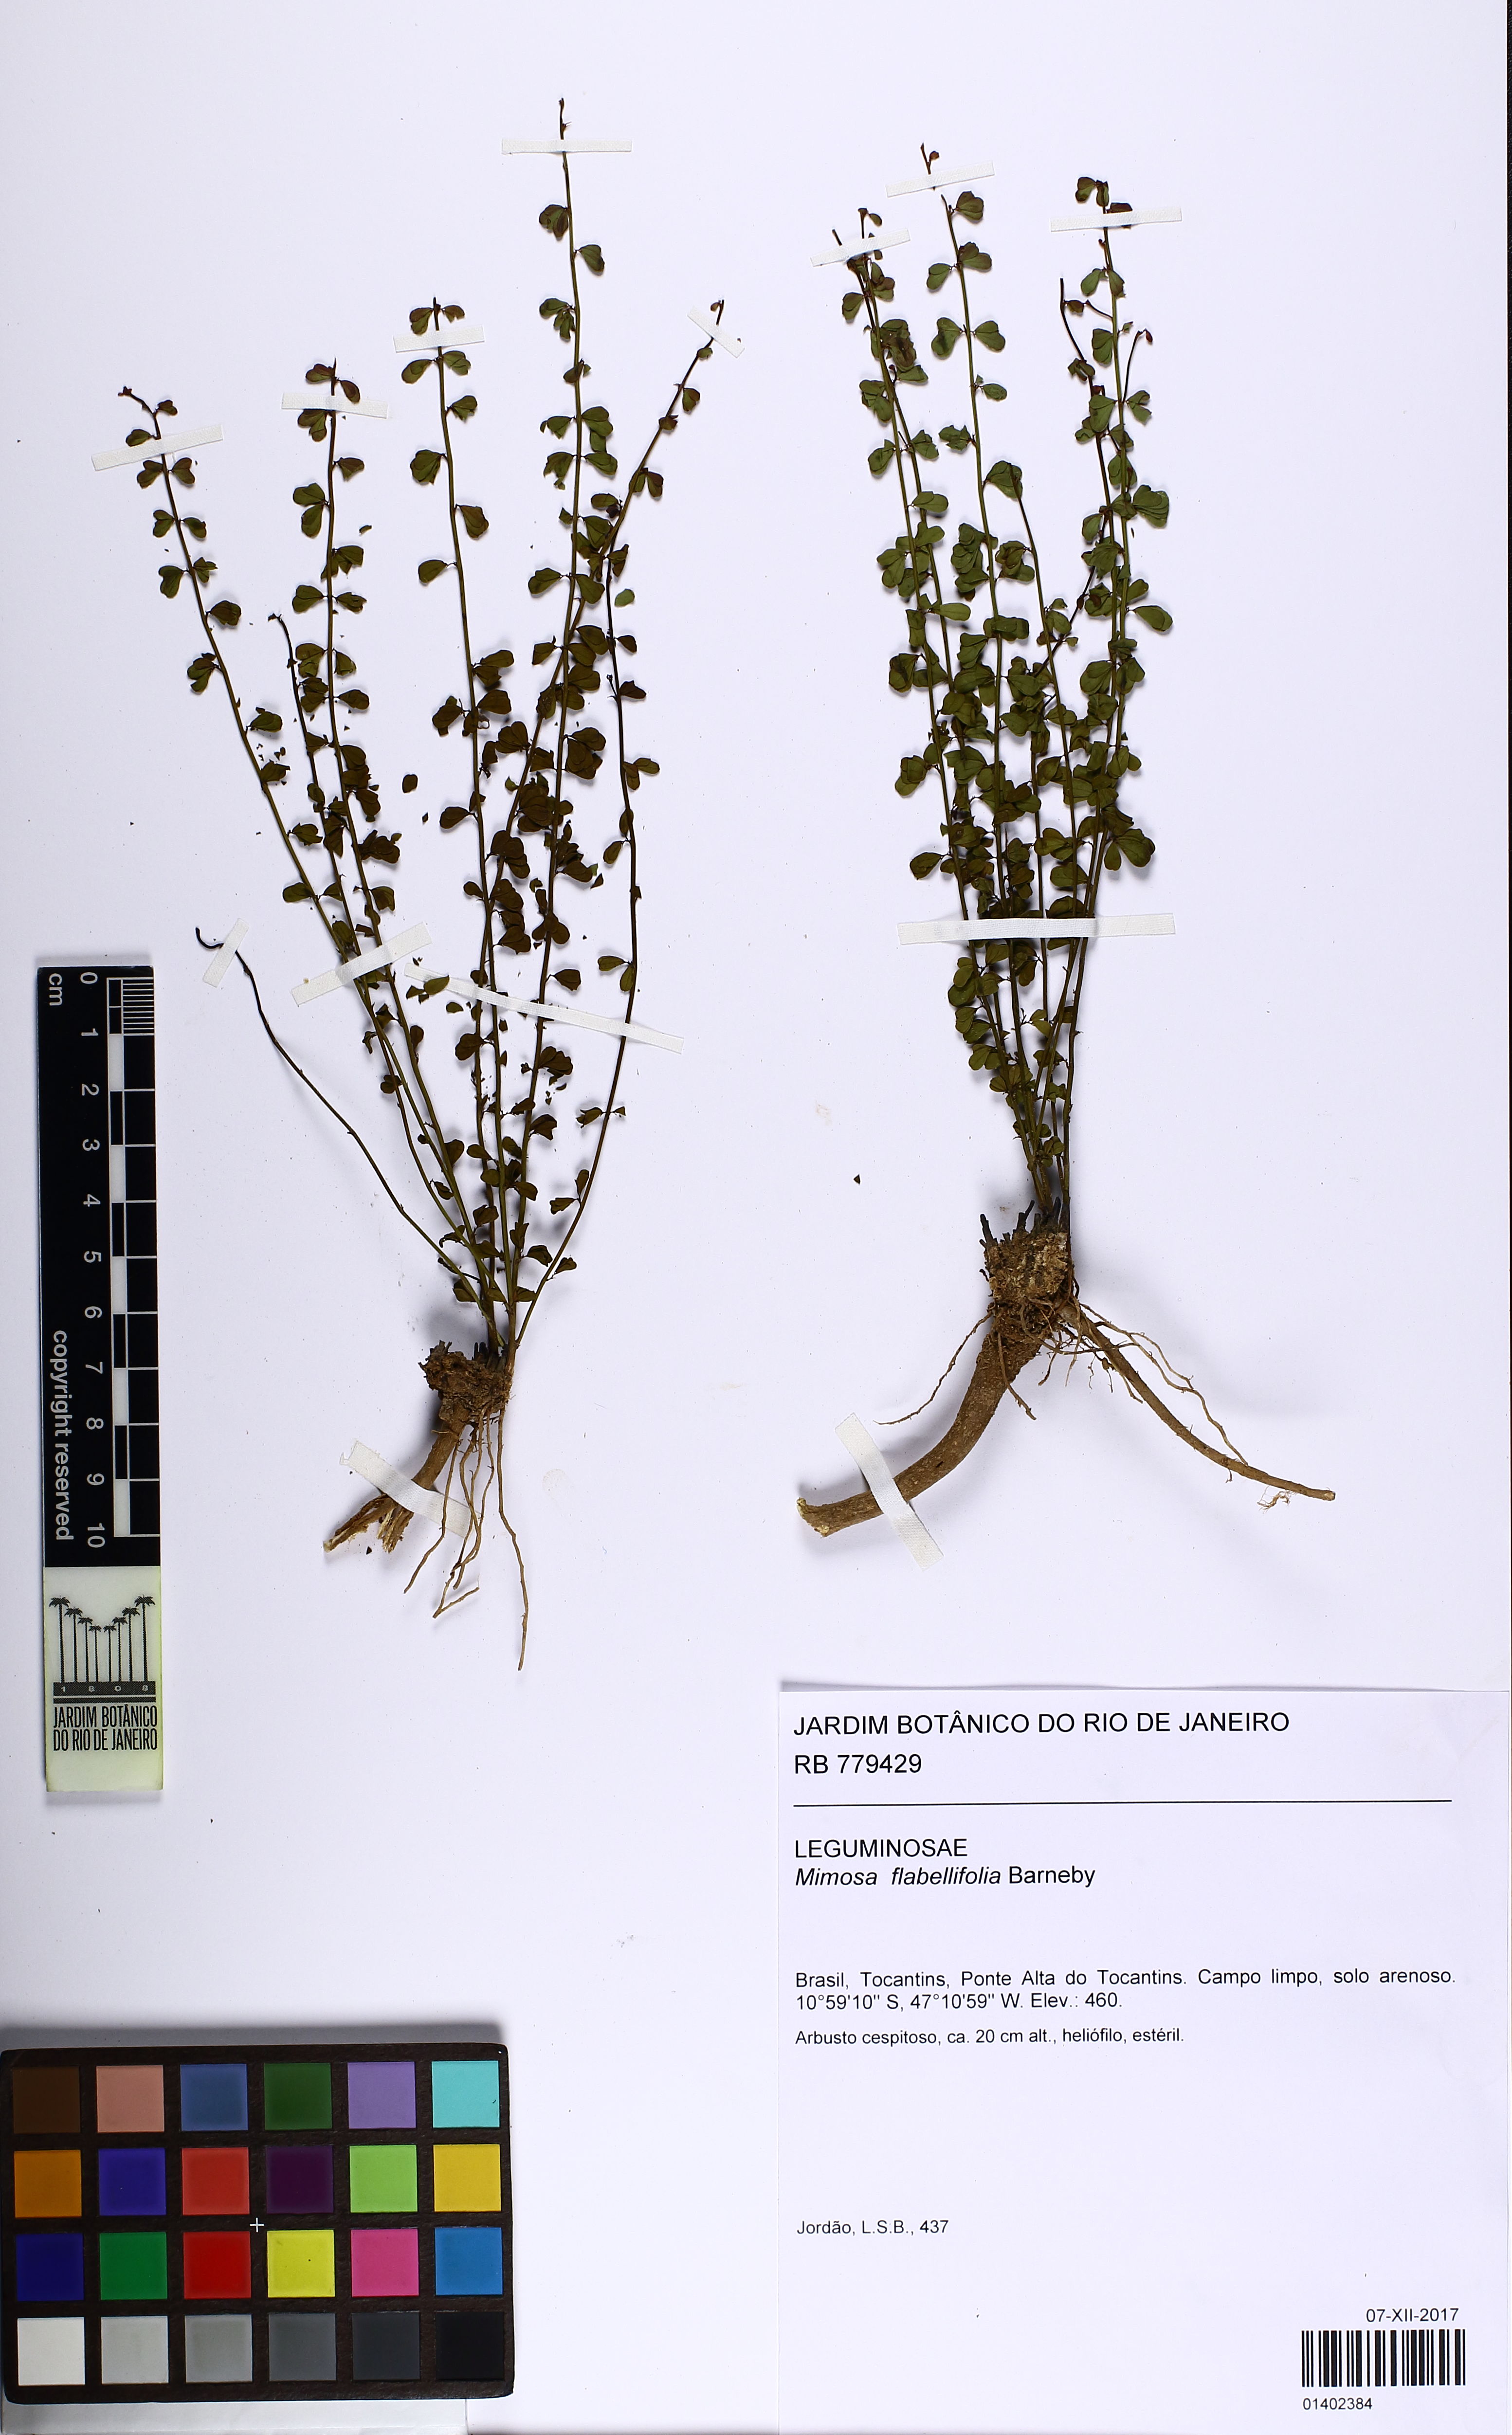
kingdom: Plantae
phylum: Tracheophyta
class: Magnoliopsida
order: Fabales
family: Fabaceae
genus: Mimosa
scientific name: Mimosa flabellifolia
